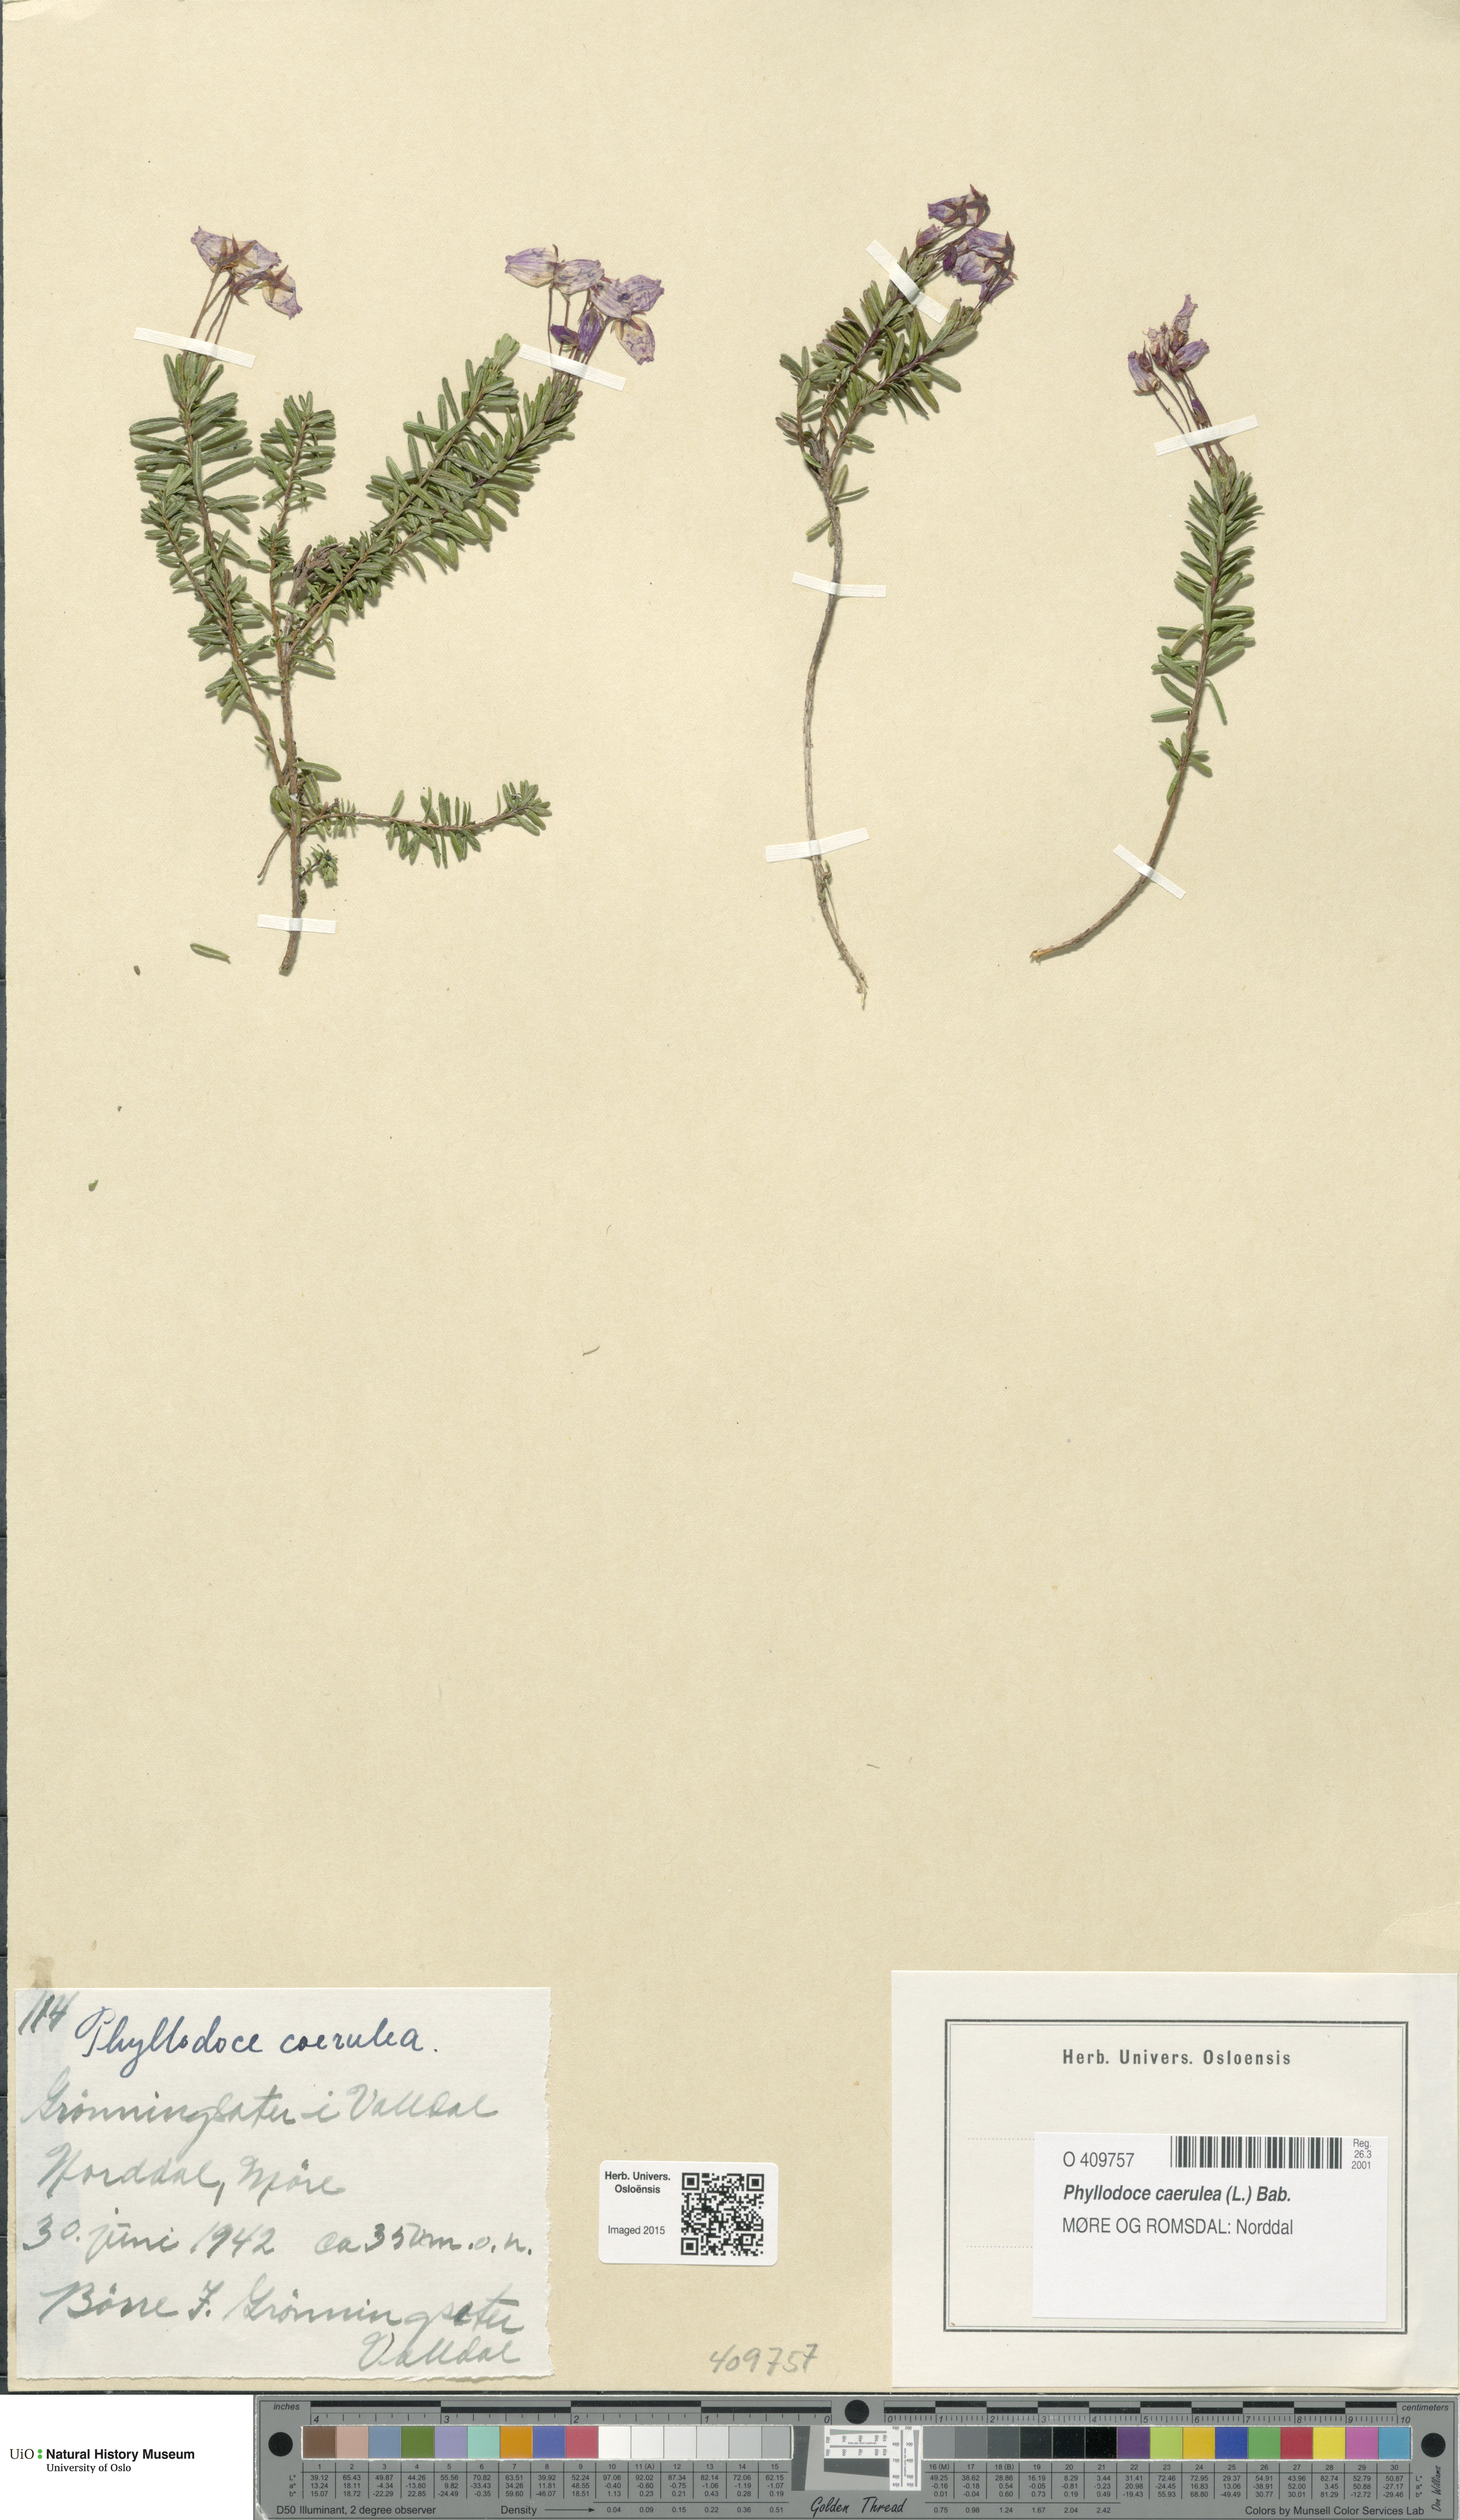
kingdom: Plantae
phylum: Tracheophyta
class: Magnoliopsida
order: Ericales
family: Ericaceae
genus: Phyllodoce
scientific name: Phyllodoce caerulea
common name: Blue heath
